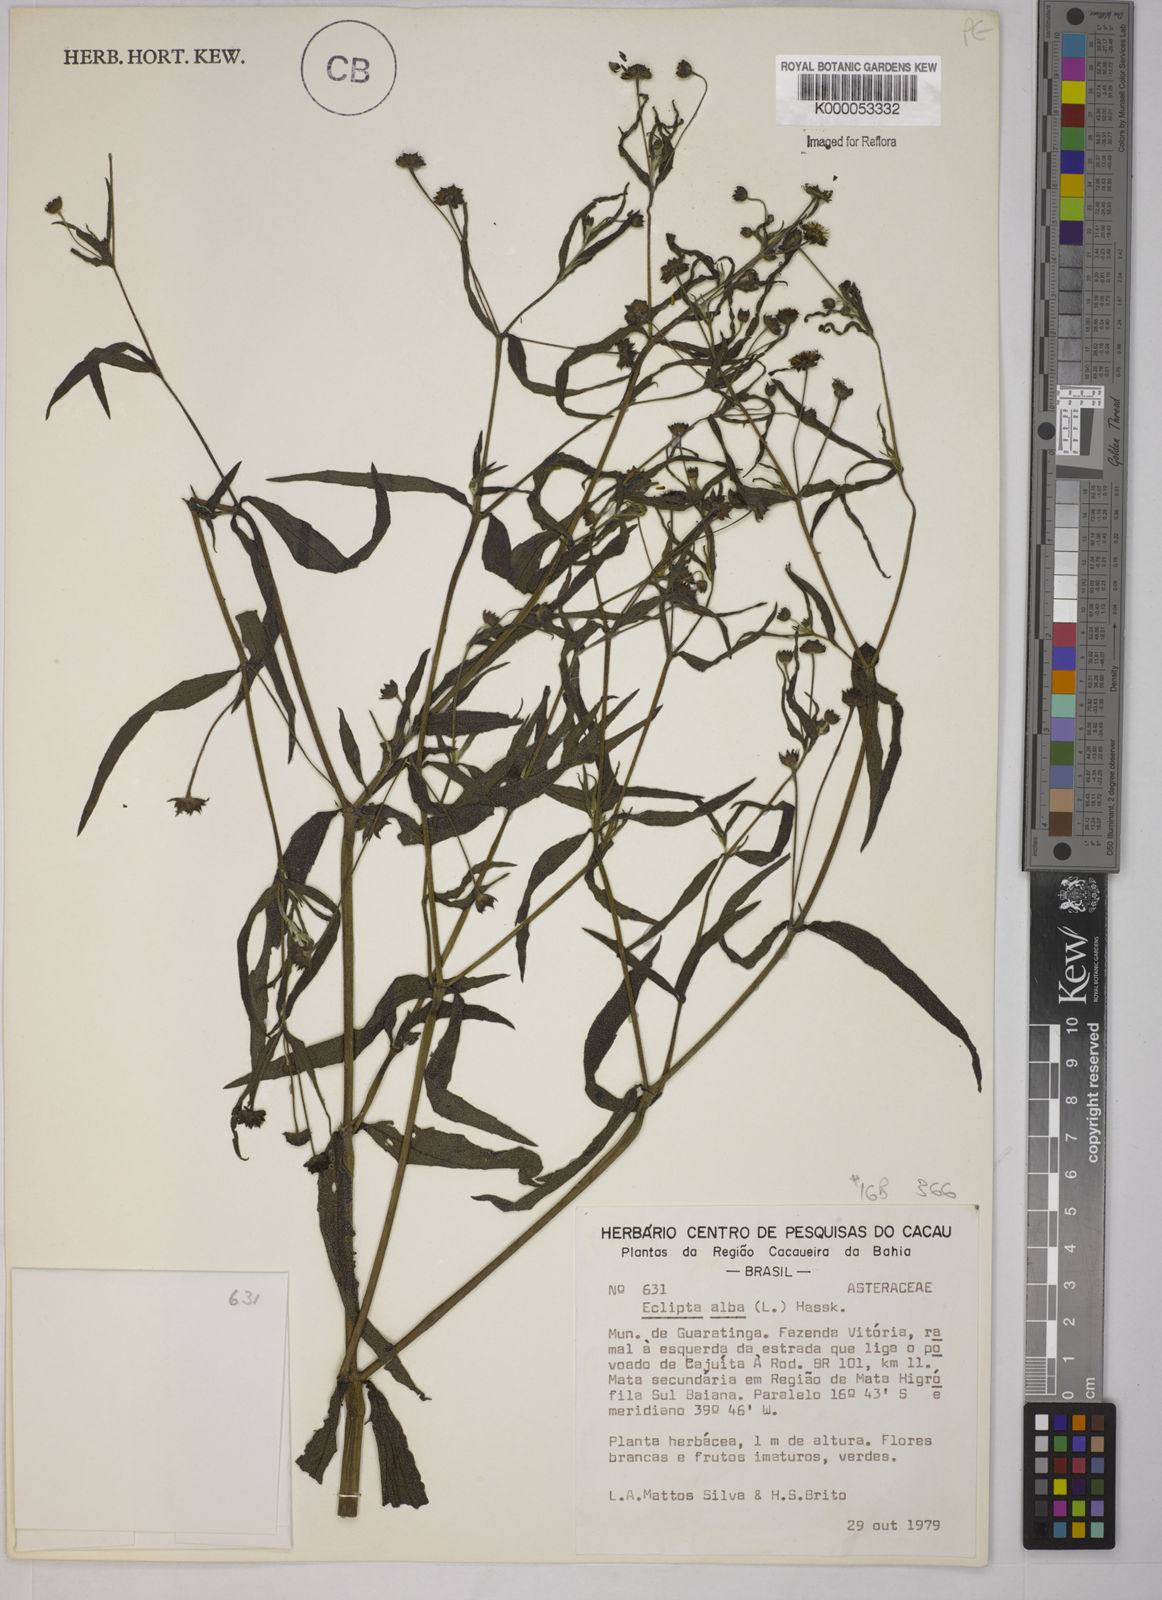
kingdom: Plantae
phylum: Tracheophyta
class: Magnoliopsida
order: Asterales
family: Asteraceae
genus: Eclipta
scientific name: Eclipta prostrata
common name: False daisy
